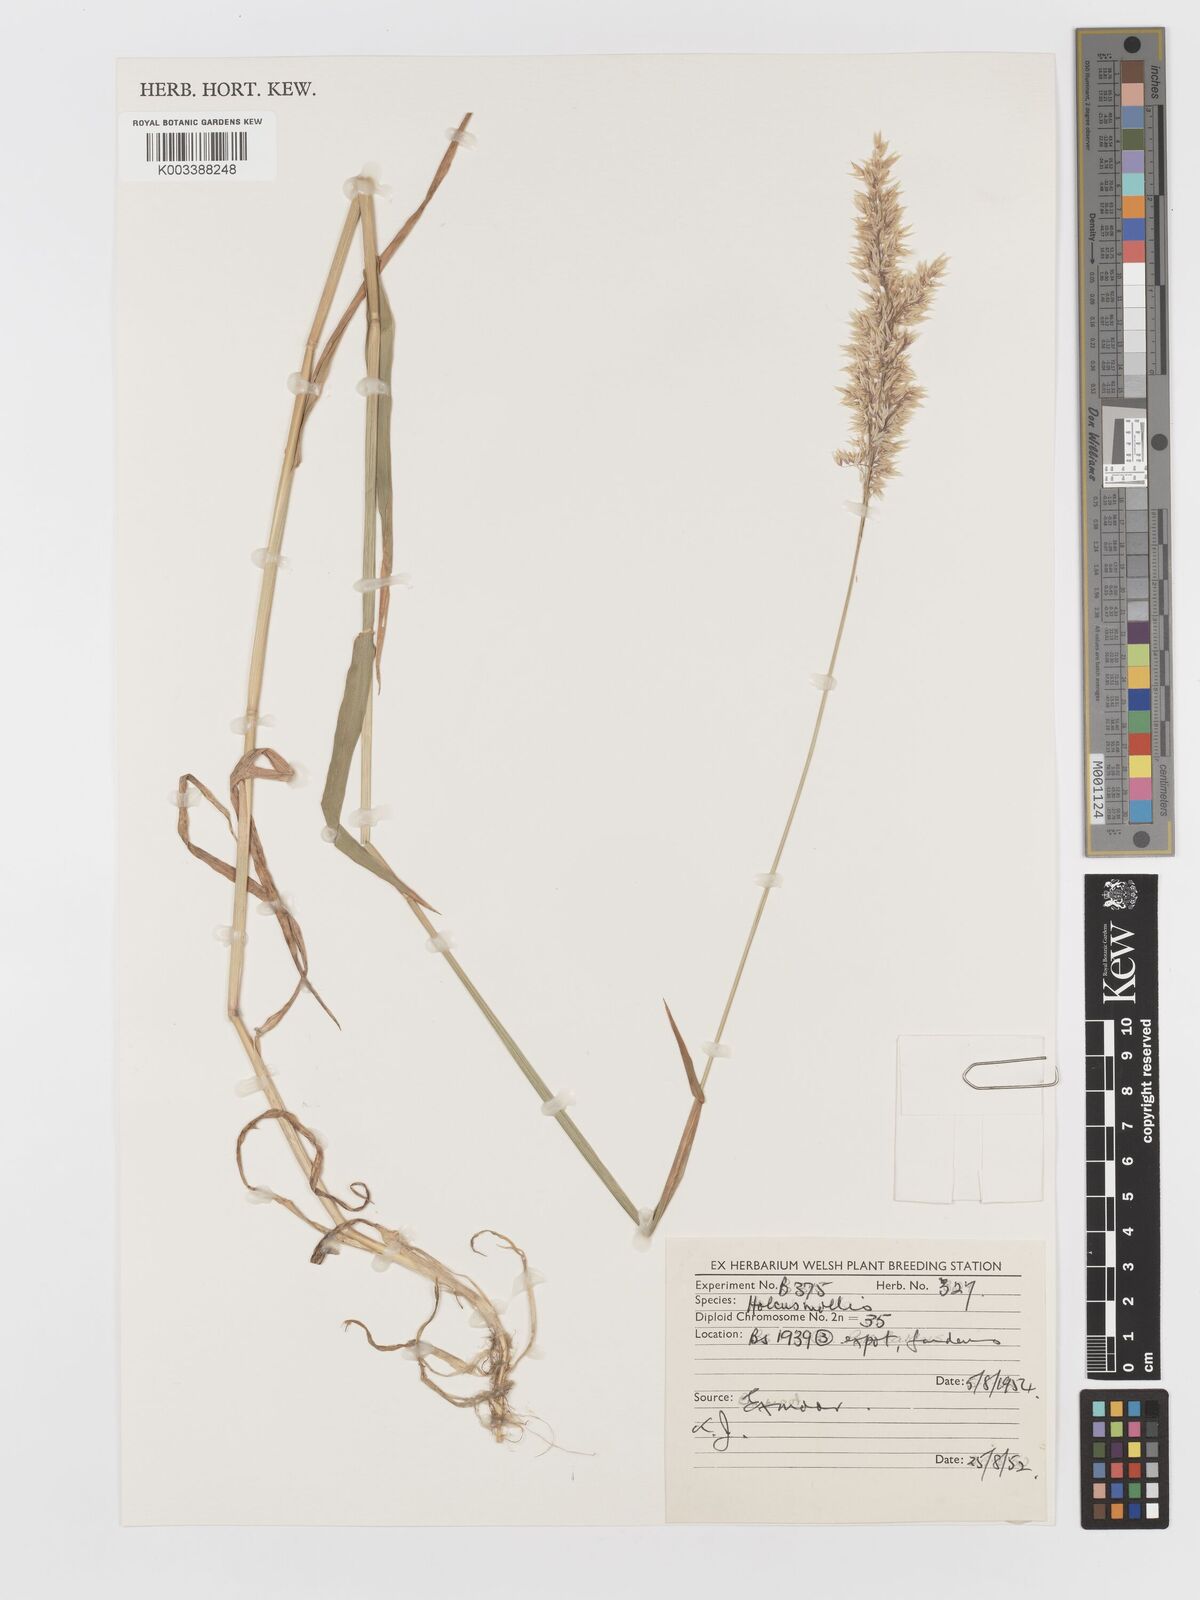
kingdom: Plantae
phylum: Tracheophyta
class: Liliopsida
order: Poales
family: Poaceae
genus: Holcus
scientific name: Holcus mollis
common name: Creeping velvetgrass
